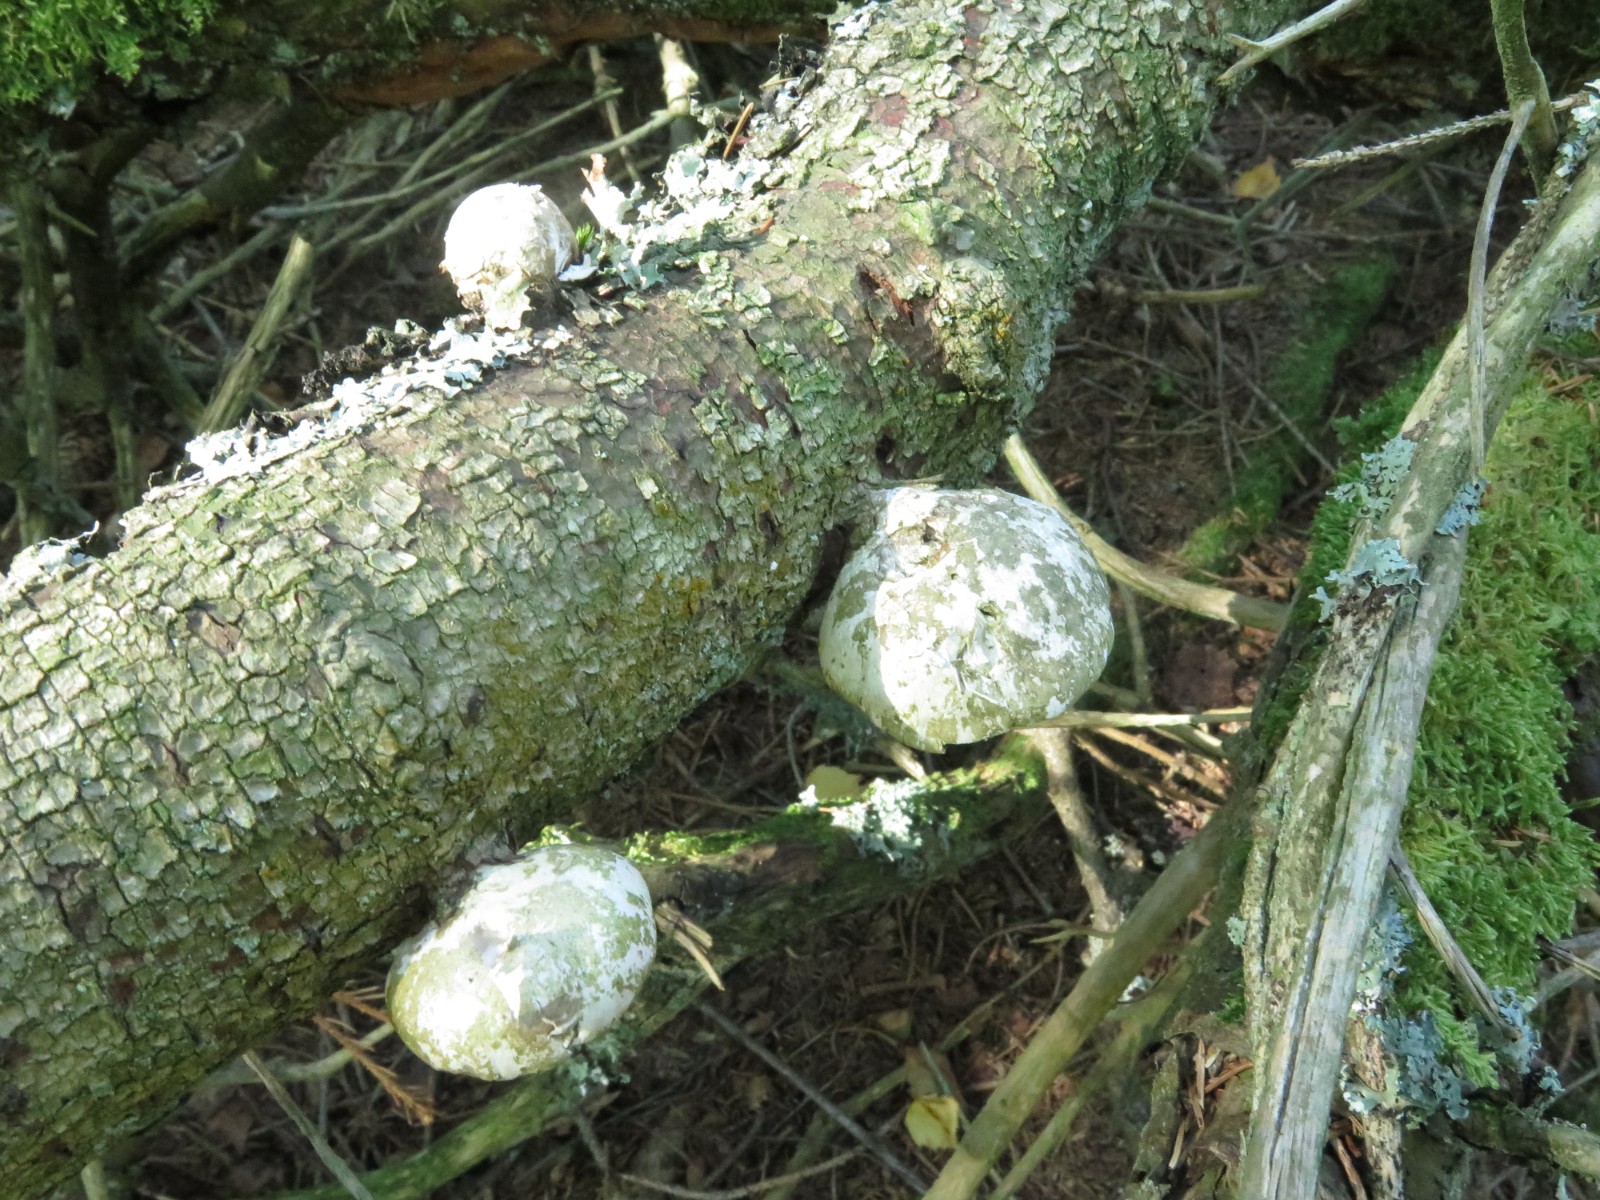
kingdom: Fungi
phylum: Basidiomycota
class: Agaricomycetes
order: Polyporales
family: Fomitopsidaceae
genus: Fomitopsis
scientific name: Fomitopsis betulina
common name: birkeporesvamp
